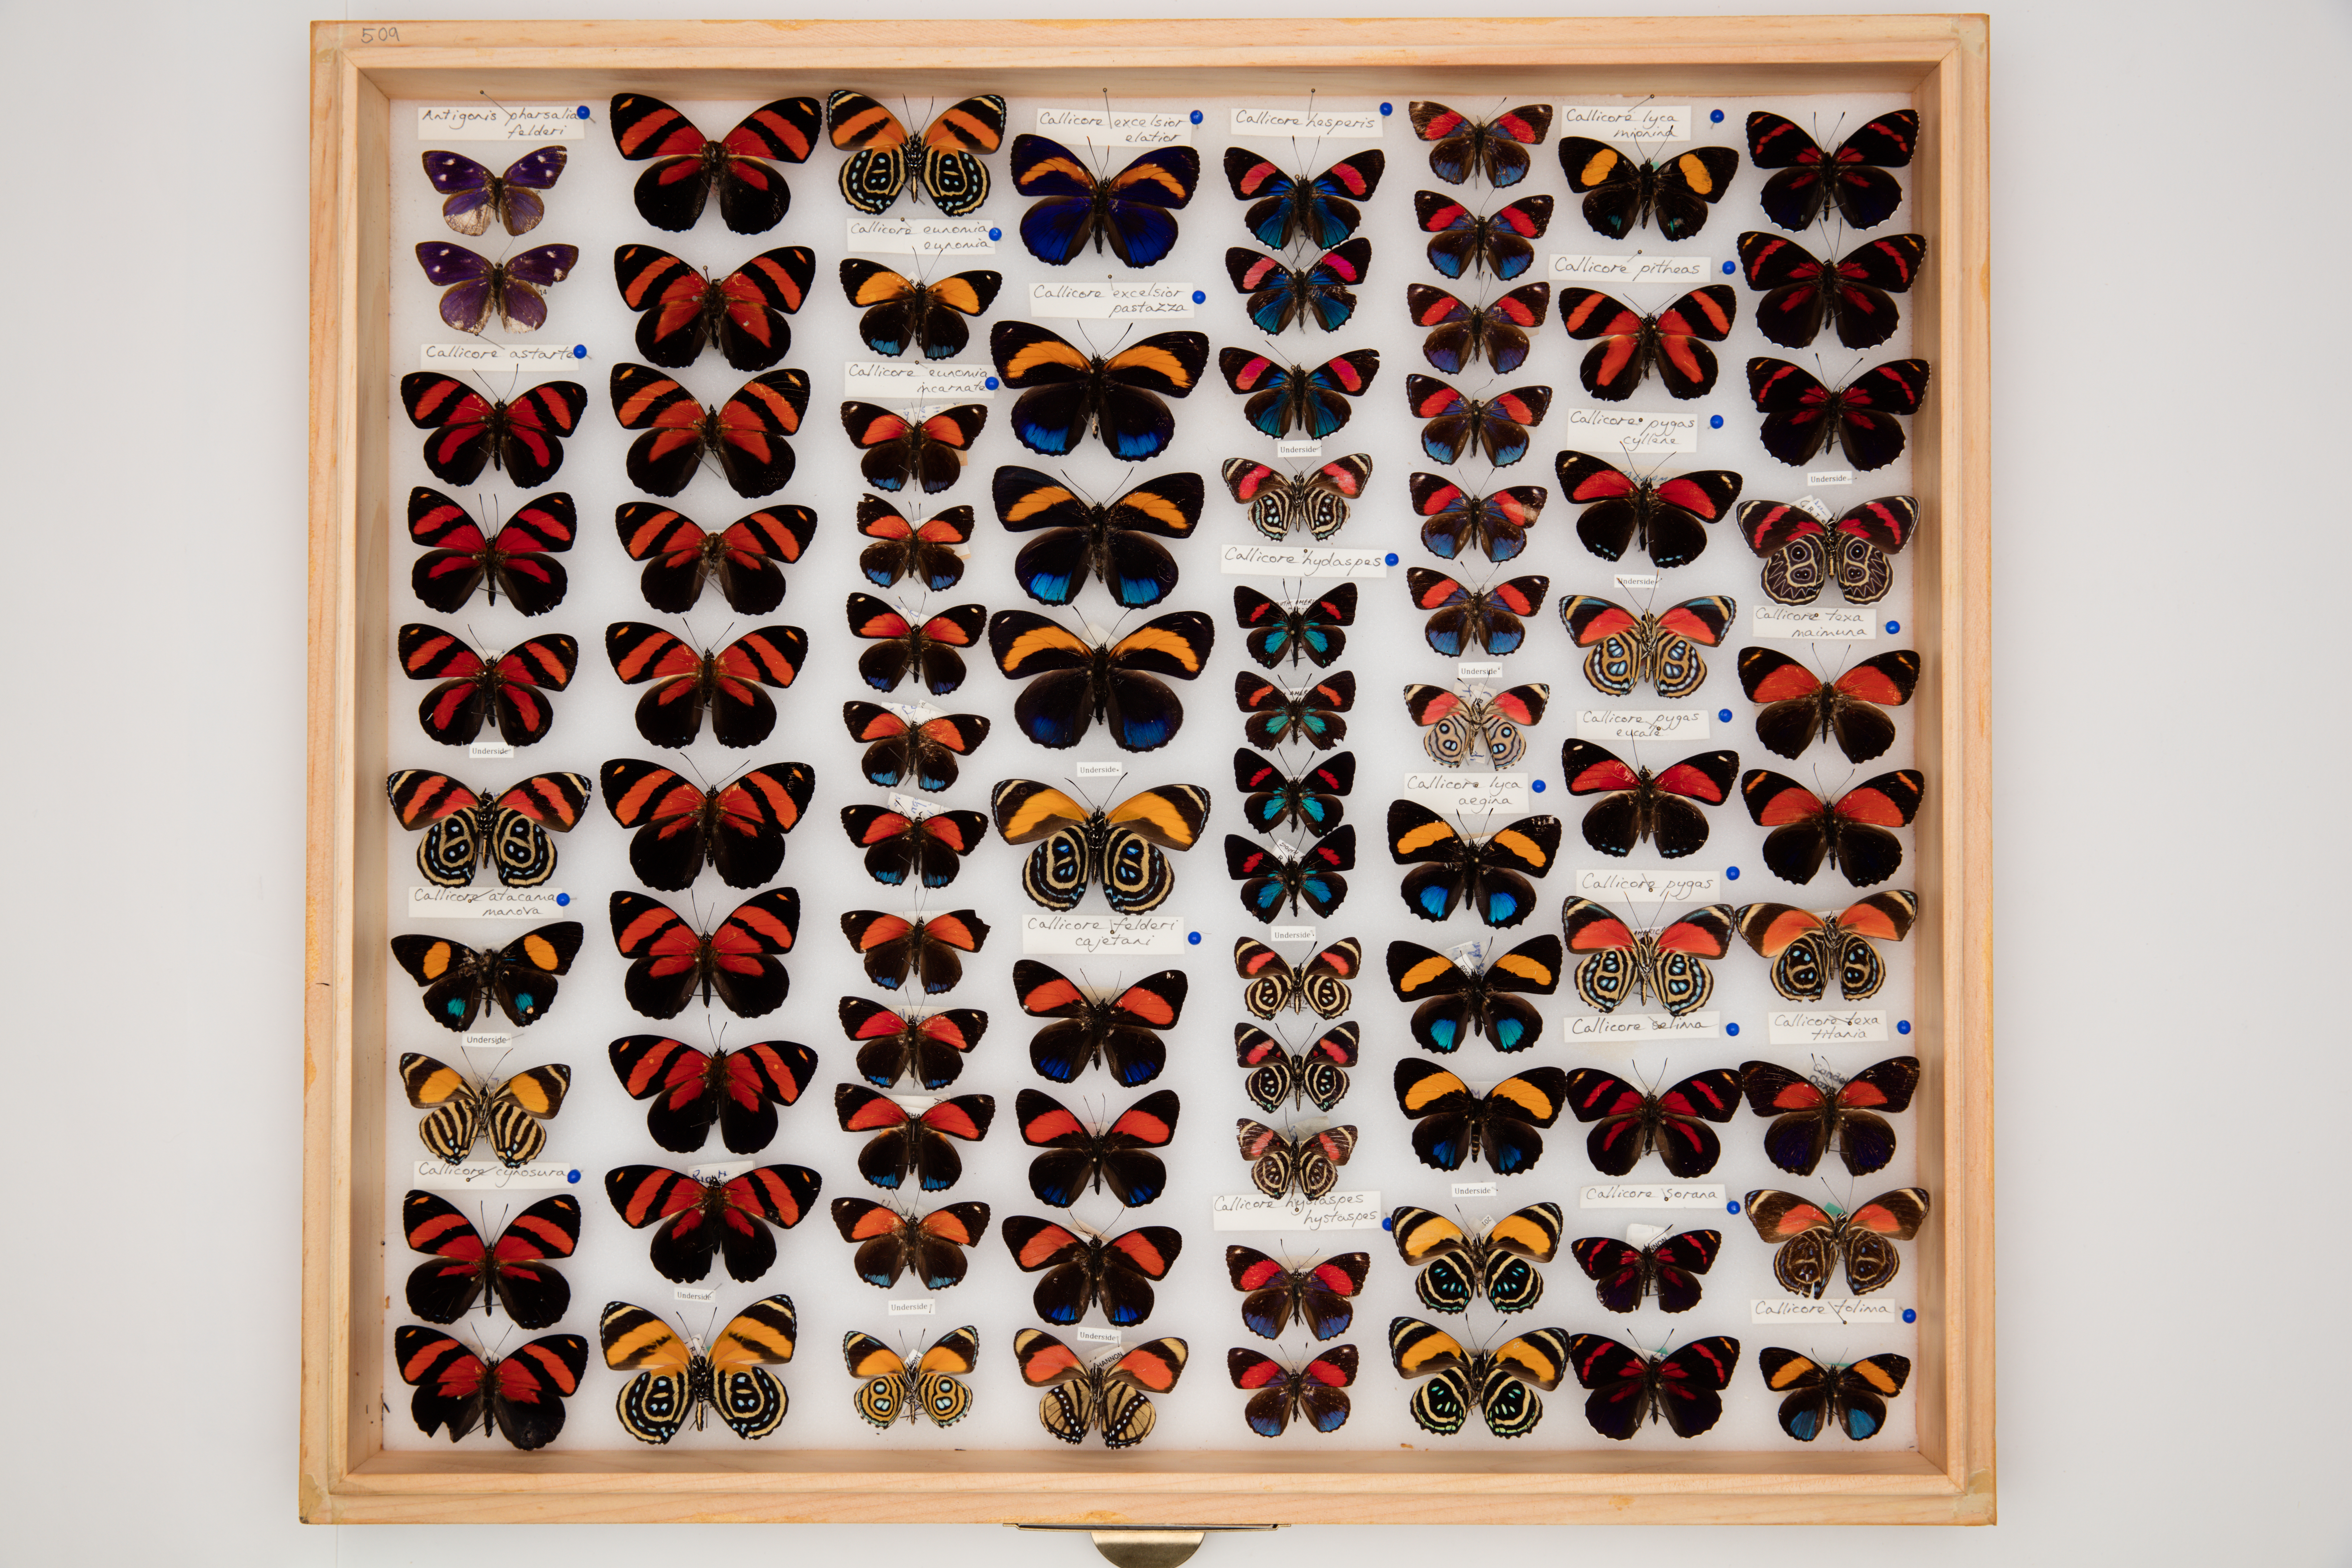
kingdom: Animalia
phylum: Arthropoda
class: Insecta
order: Lepidoptera
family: Nymphalidae
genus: Catagramma
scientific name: Catagramma
